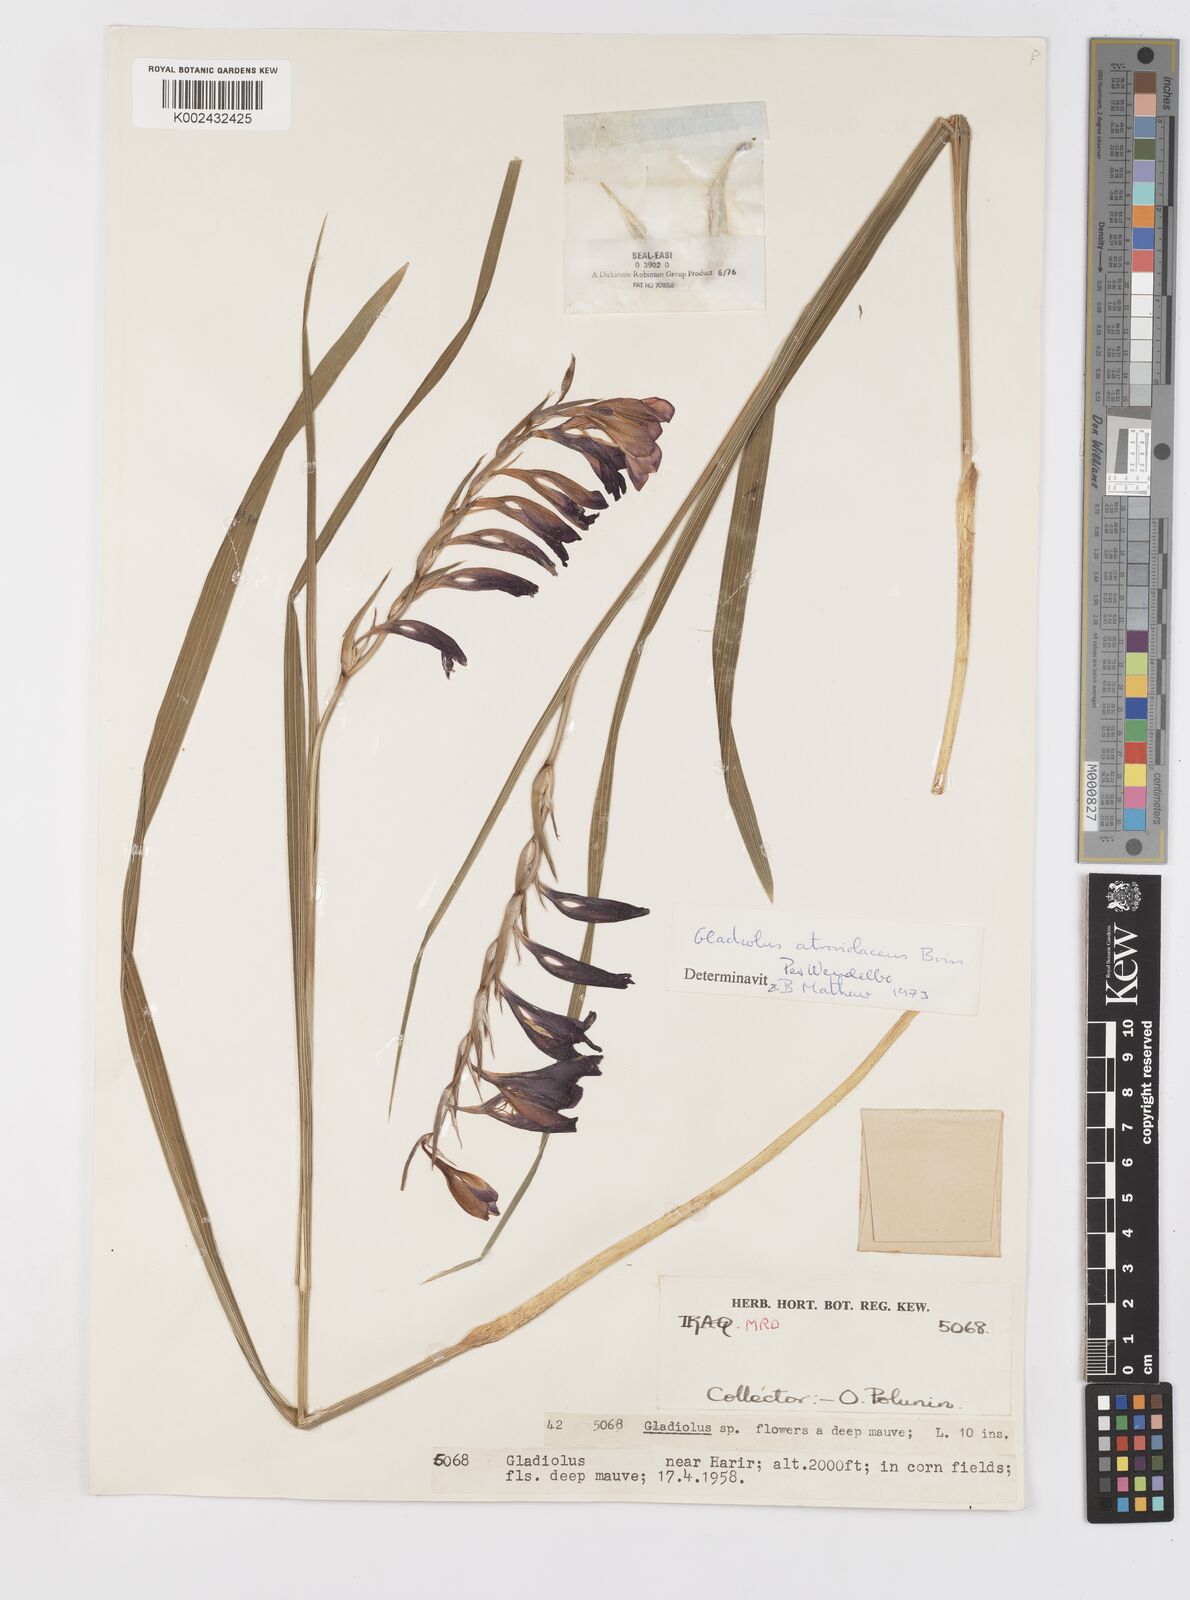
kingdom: Plantae
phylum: Tracheophyta
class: Liliopsida
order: Asparagales
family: Iridaceae
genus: Gladiolus
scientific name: Gladiolus atroviolaceus
